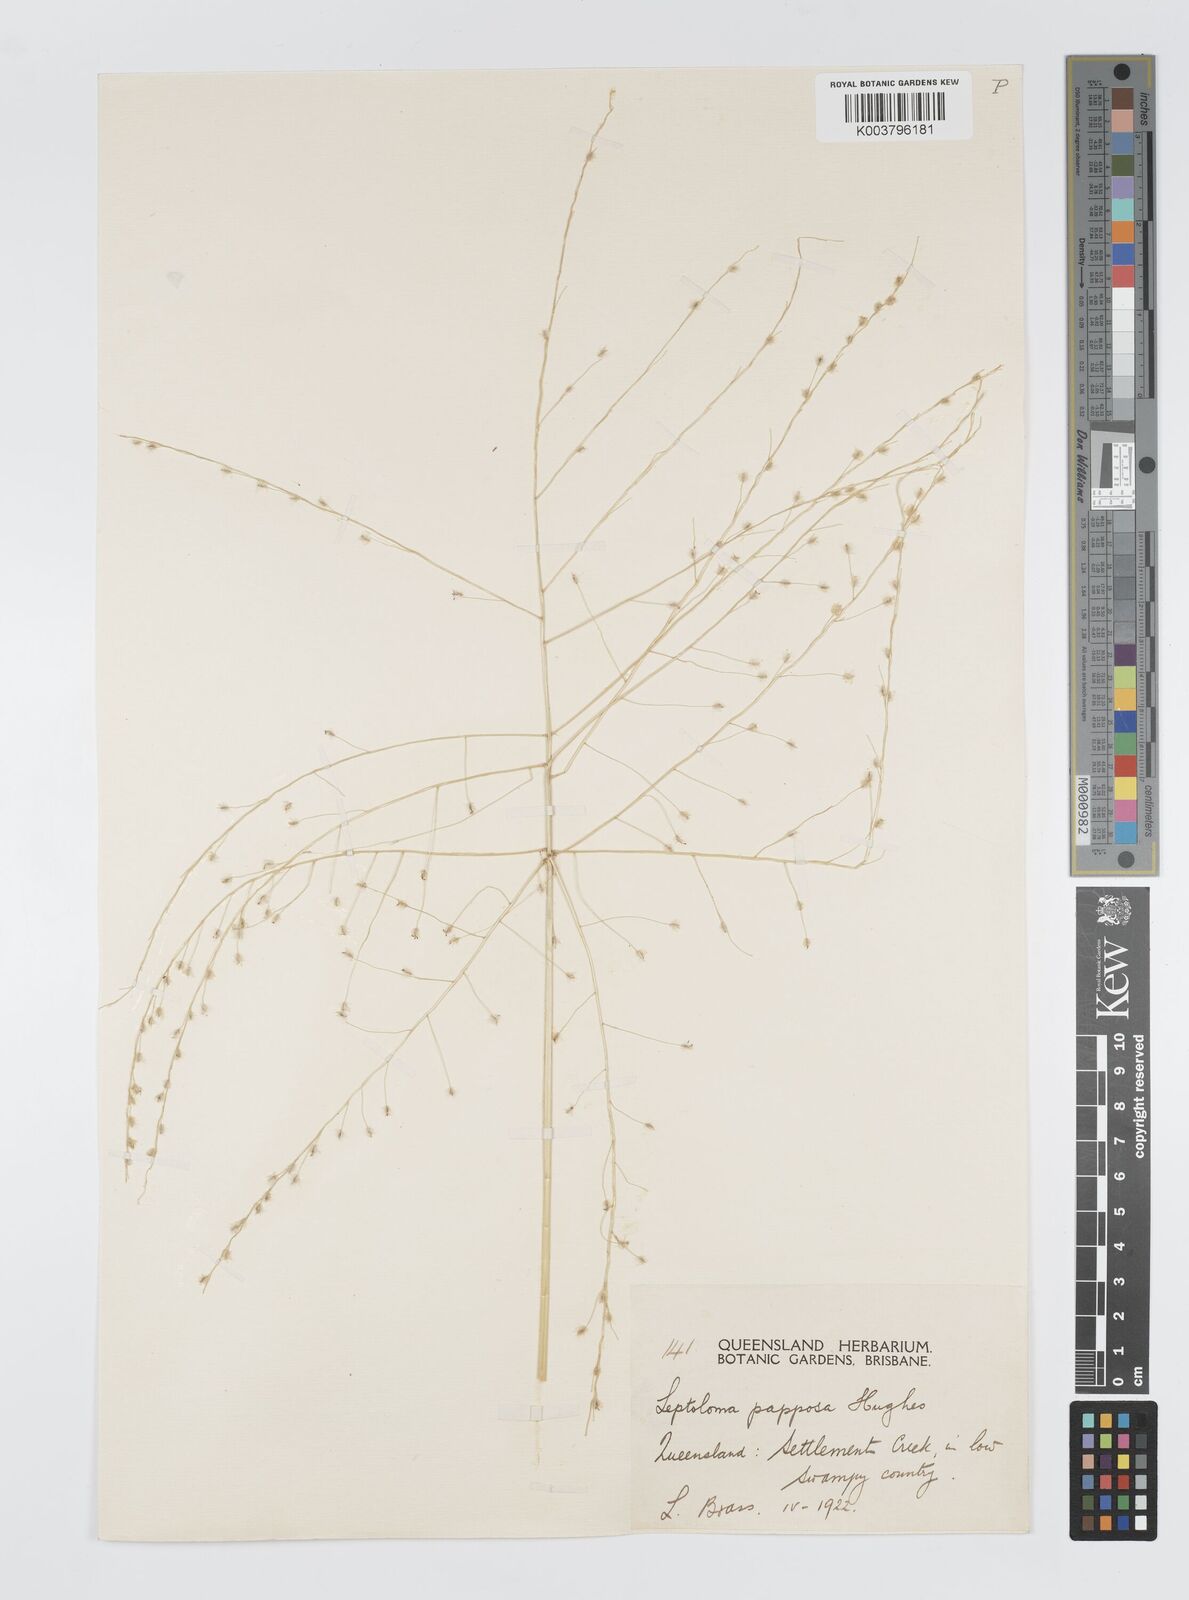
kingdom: Plantae
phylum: Tracheophyta
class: Liliopsida
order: Poales
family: Poaceae
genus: Digitaria
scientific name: Digitaria papposa
